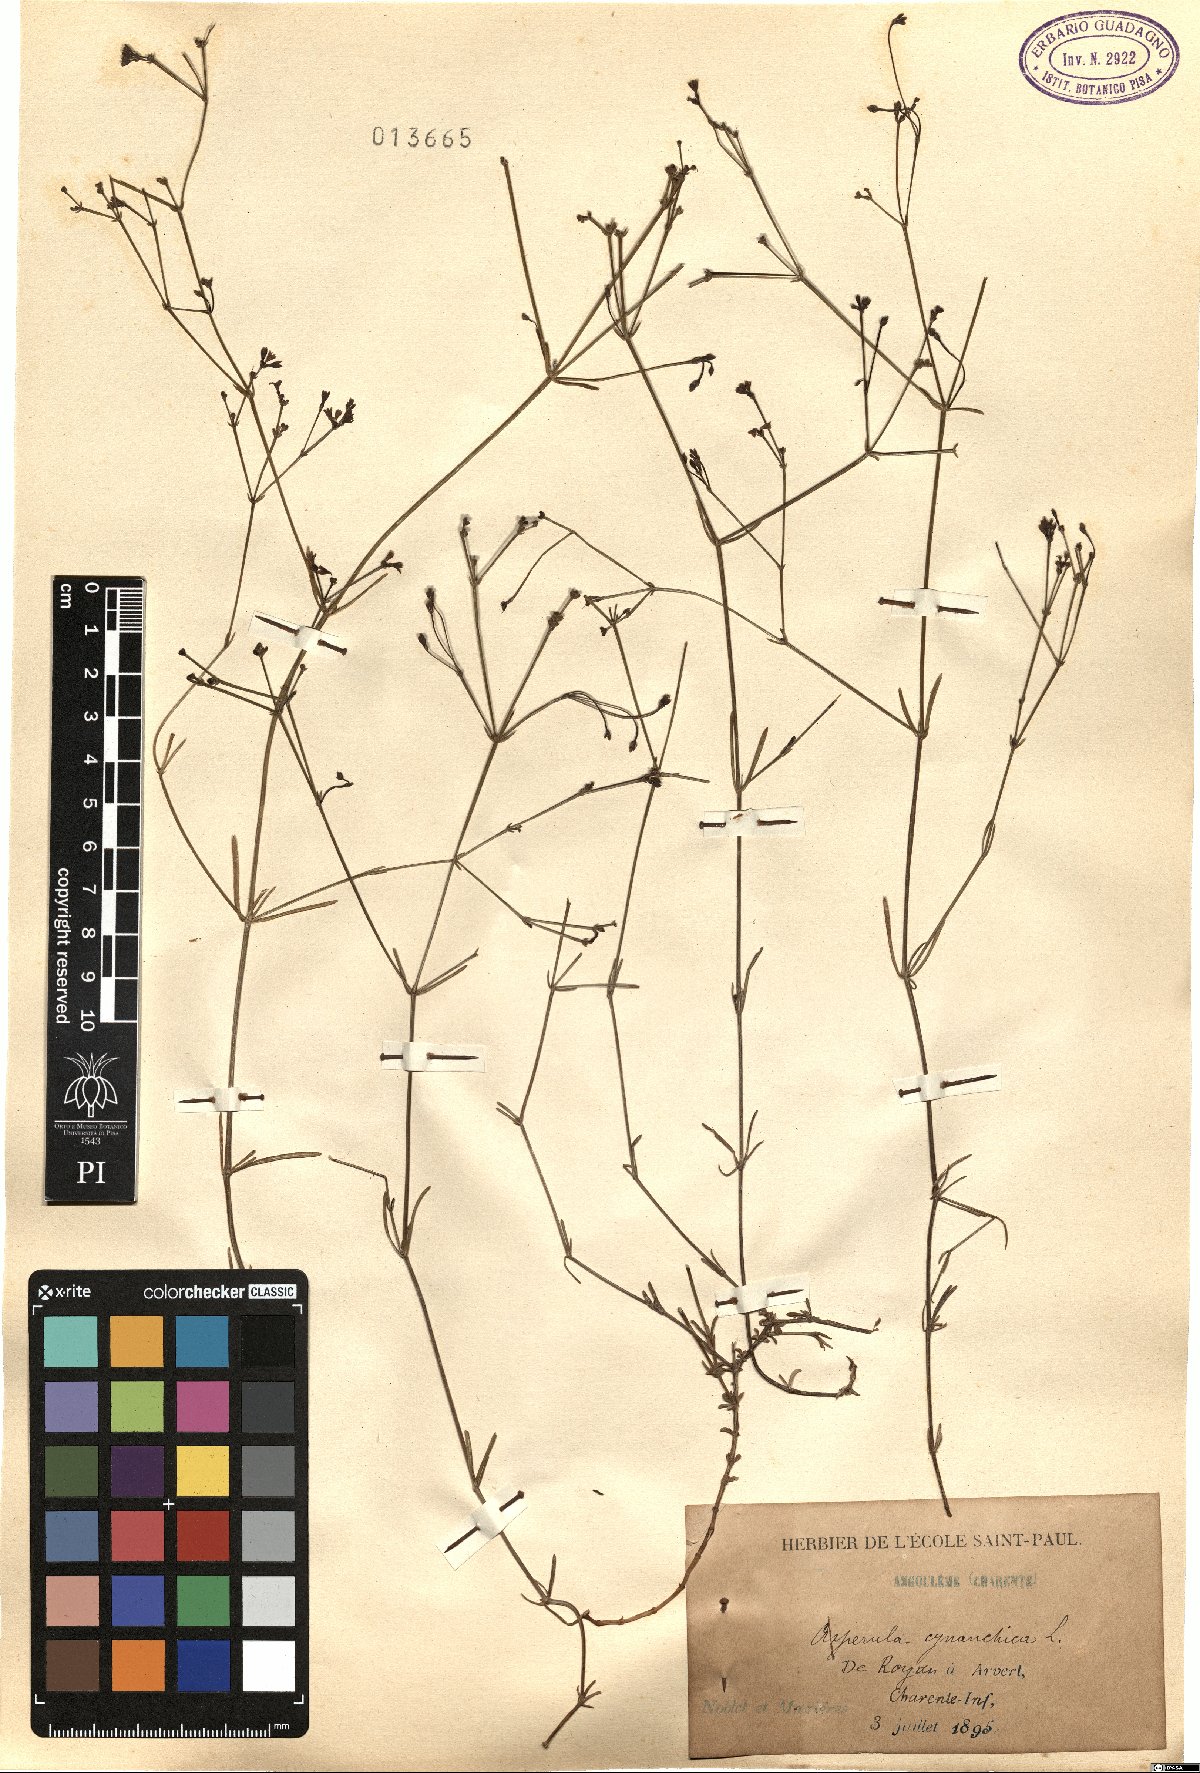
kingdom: Plantae
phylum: Tracheophyta
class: Magnoliopsida
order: Gentianales
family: Rubiaceae
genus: Cynanchica
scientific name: Cynanchica pyrenaica
